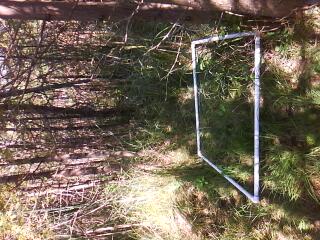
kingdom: Plantae
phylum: Tracheophyta
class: Liliopsida
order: Poales
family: Cyperaceae
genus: Carex
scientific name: Carex leptalea
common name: Bristly-stalked sedge
